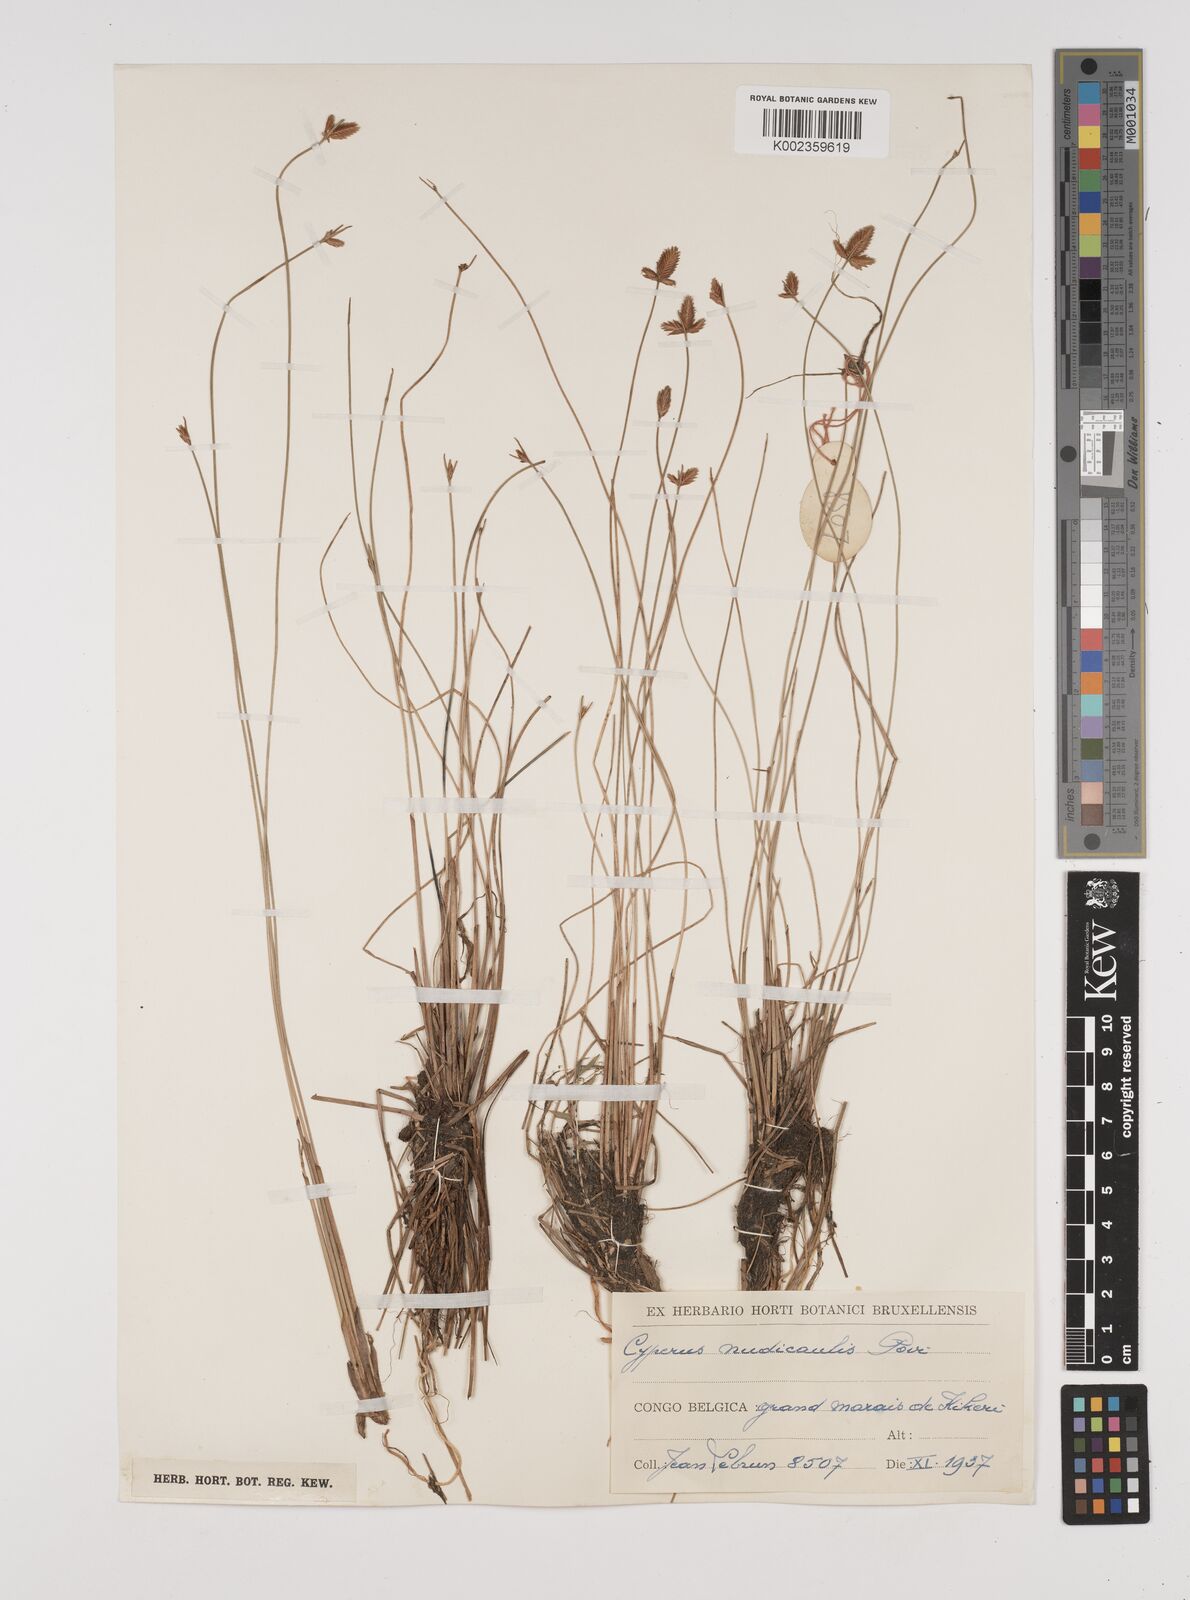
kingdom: Plantae
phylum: Tracheophyta
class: Liliopsida
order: Poales
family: Cyperaceae
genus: Cyperus
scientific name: Cyperus pectinatus
